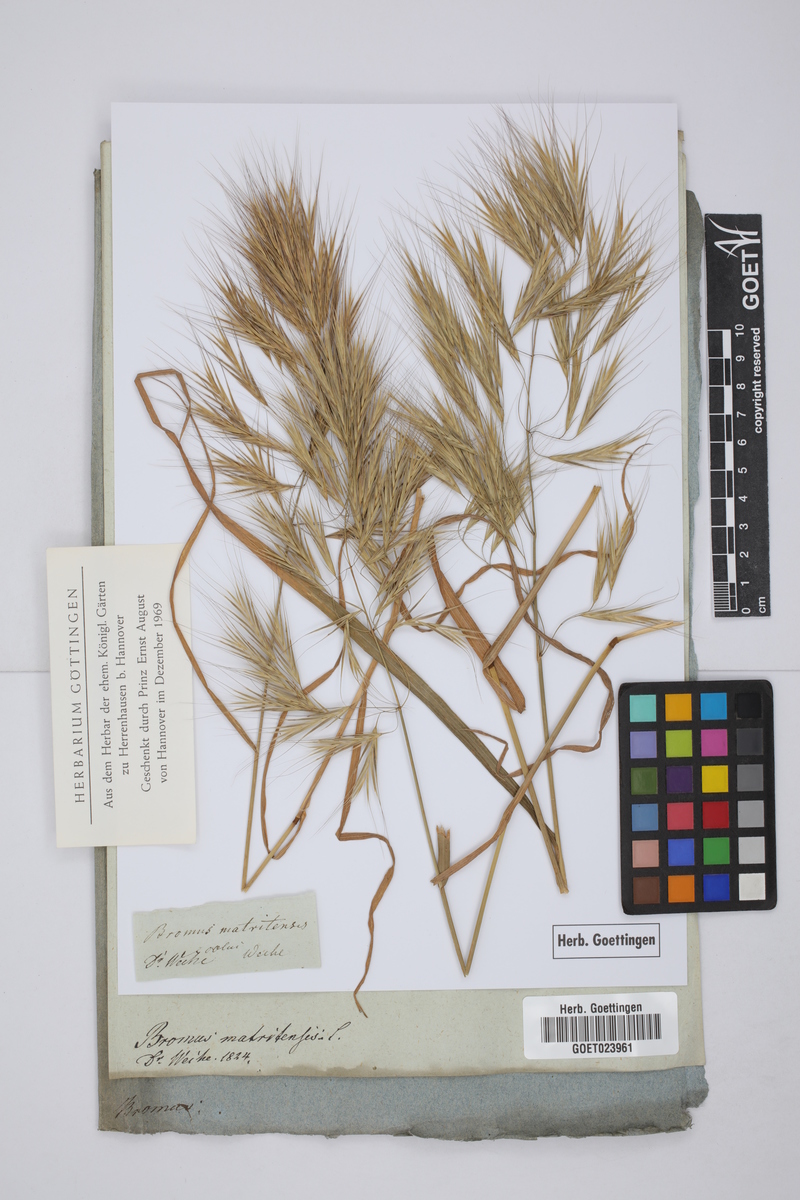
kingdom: Plantae
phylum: Tracheophyta
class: Liliopsida
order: Poales
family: Poaceae
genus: Bromus
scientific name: Bromus madritensis
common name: Compact brome
